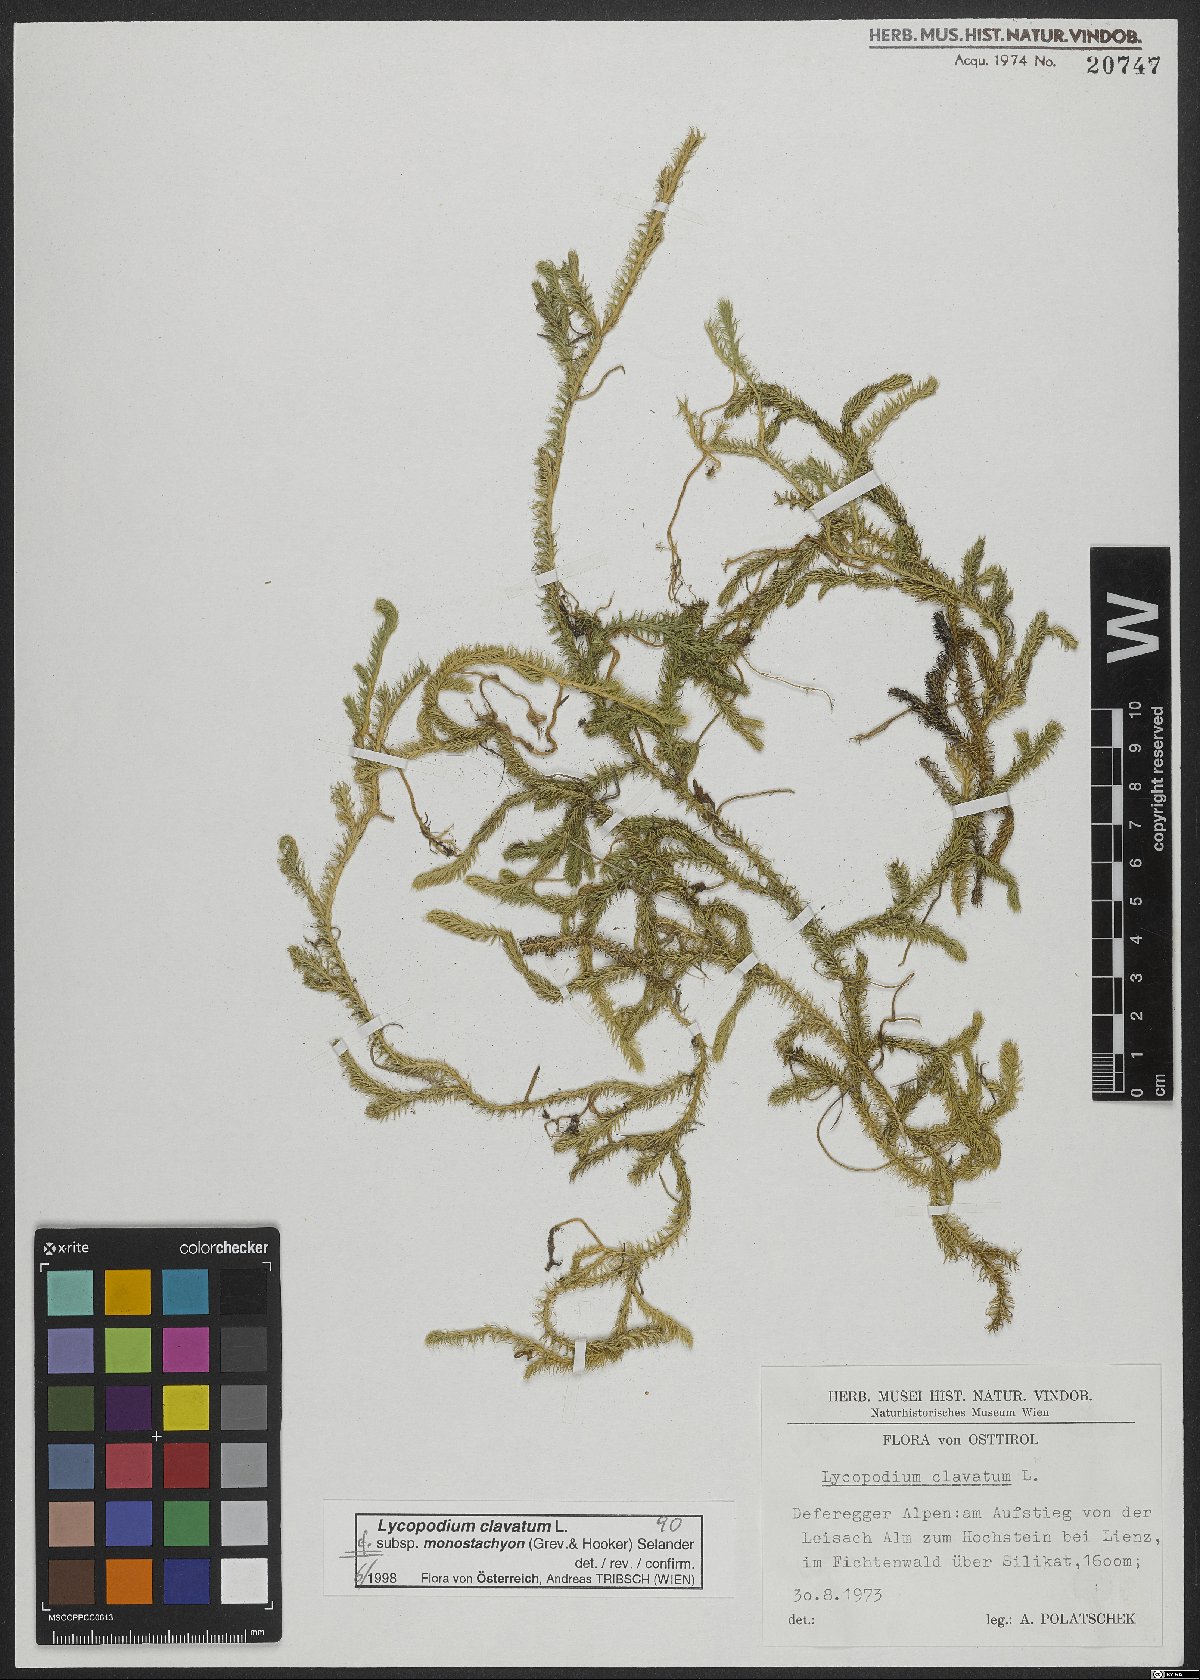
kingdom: Plantae
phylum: Tracheophyta
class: Lycopodiopsida
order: Lycopodiales
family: Lycopodiaceae
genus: Lycopodium
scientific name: Lycopodium lagopus
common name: One-cone clubmoss
